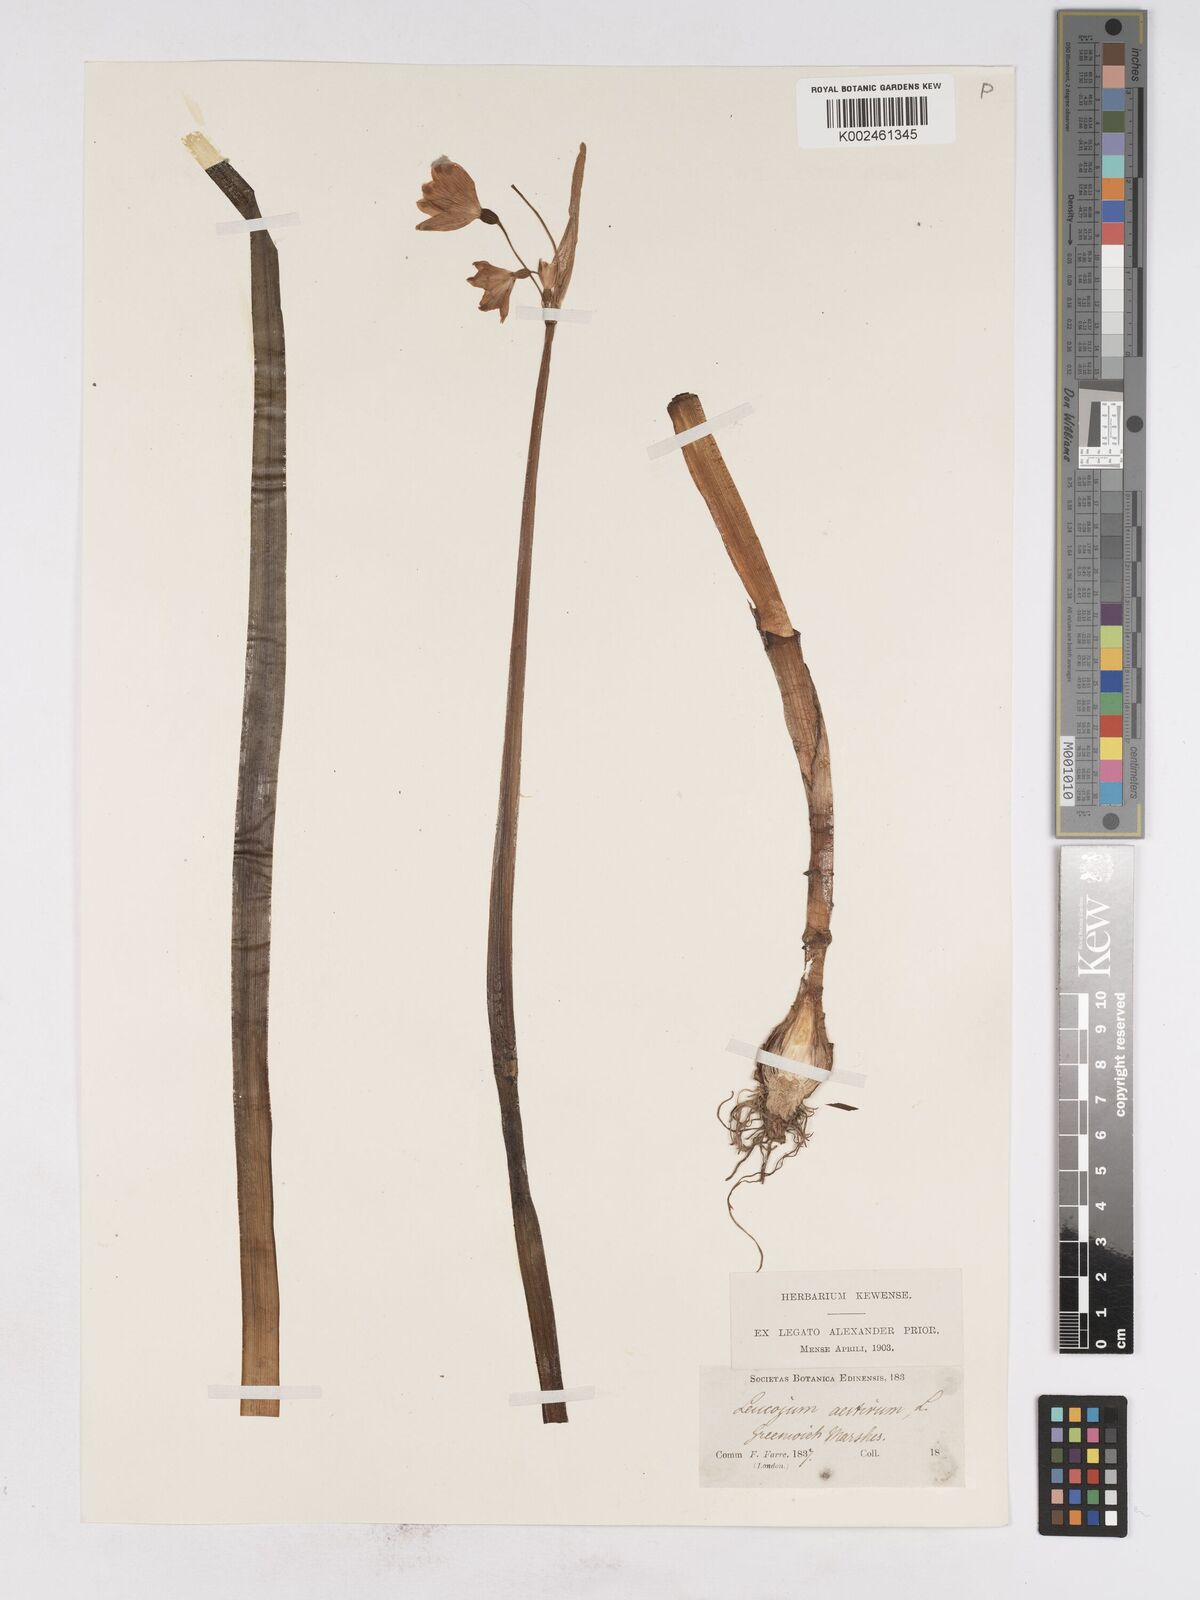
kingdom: Plantae
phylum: Tracheophyta
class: Liliopsida
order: Asparagales
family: Amaryllidaceae
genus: Leucojum
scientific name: Leucojum aestivum
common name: Summer snowflake
